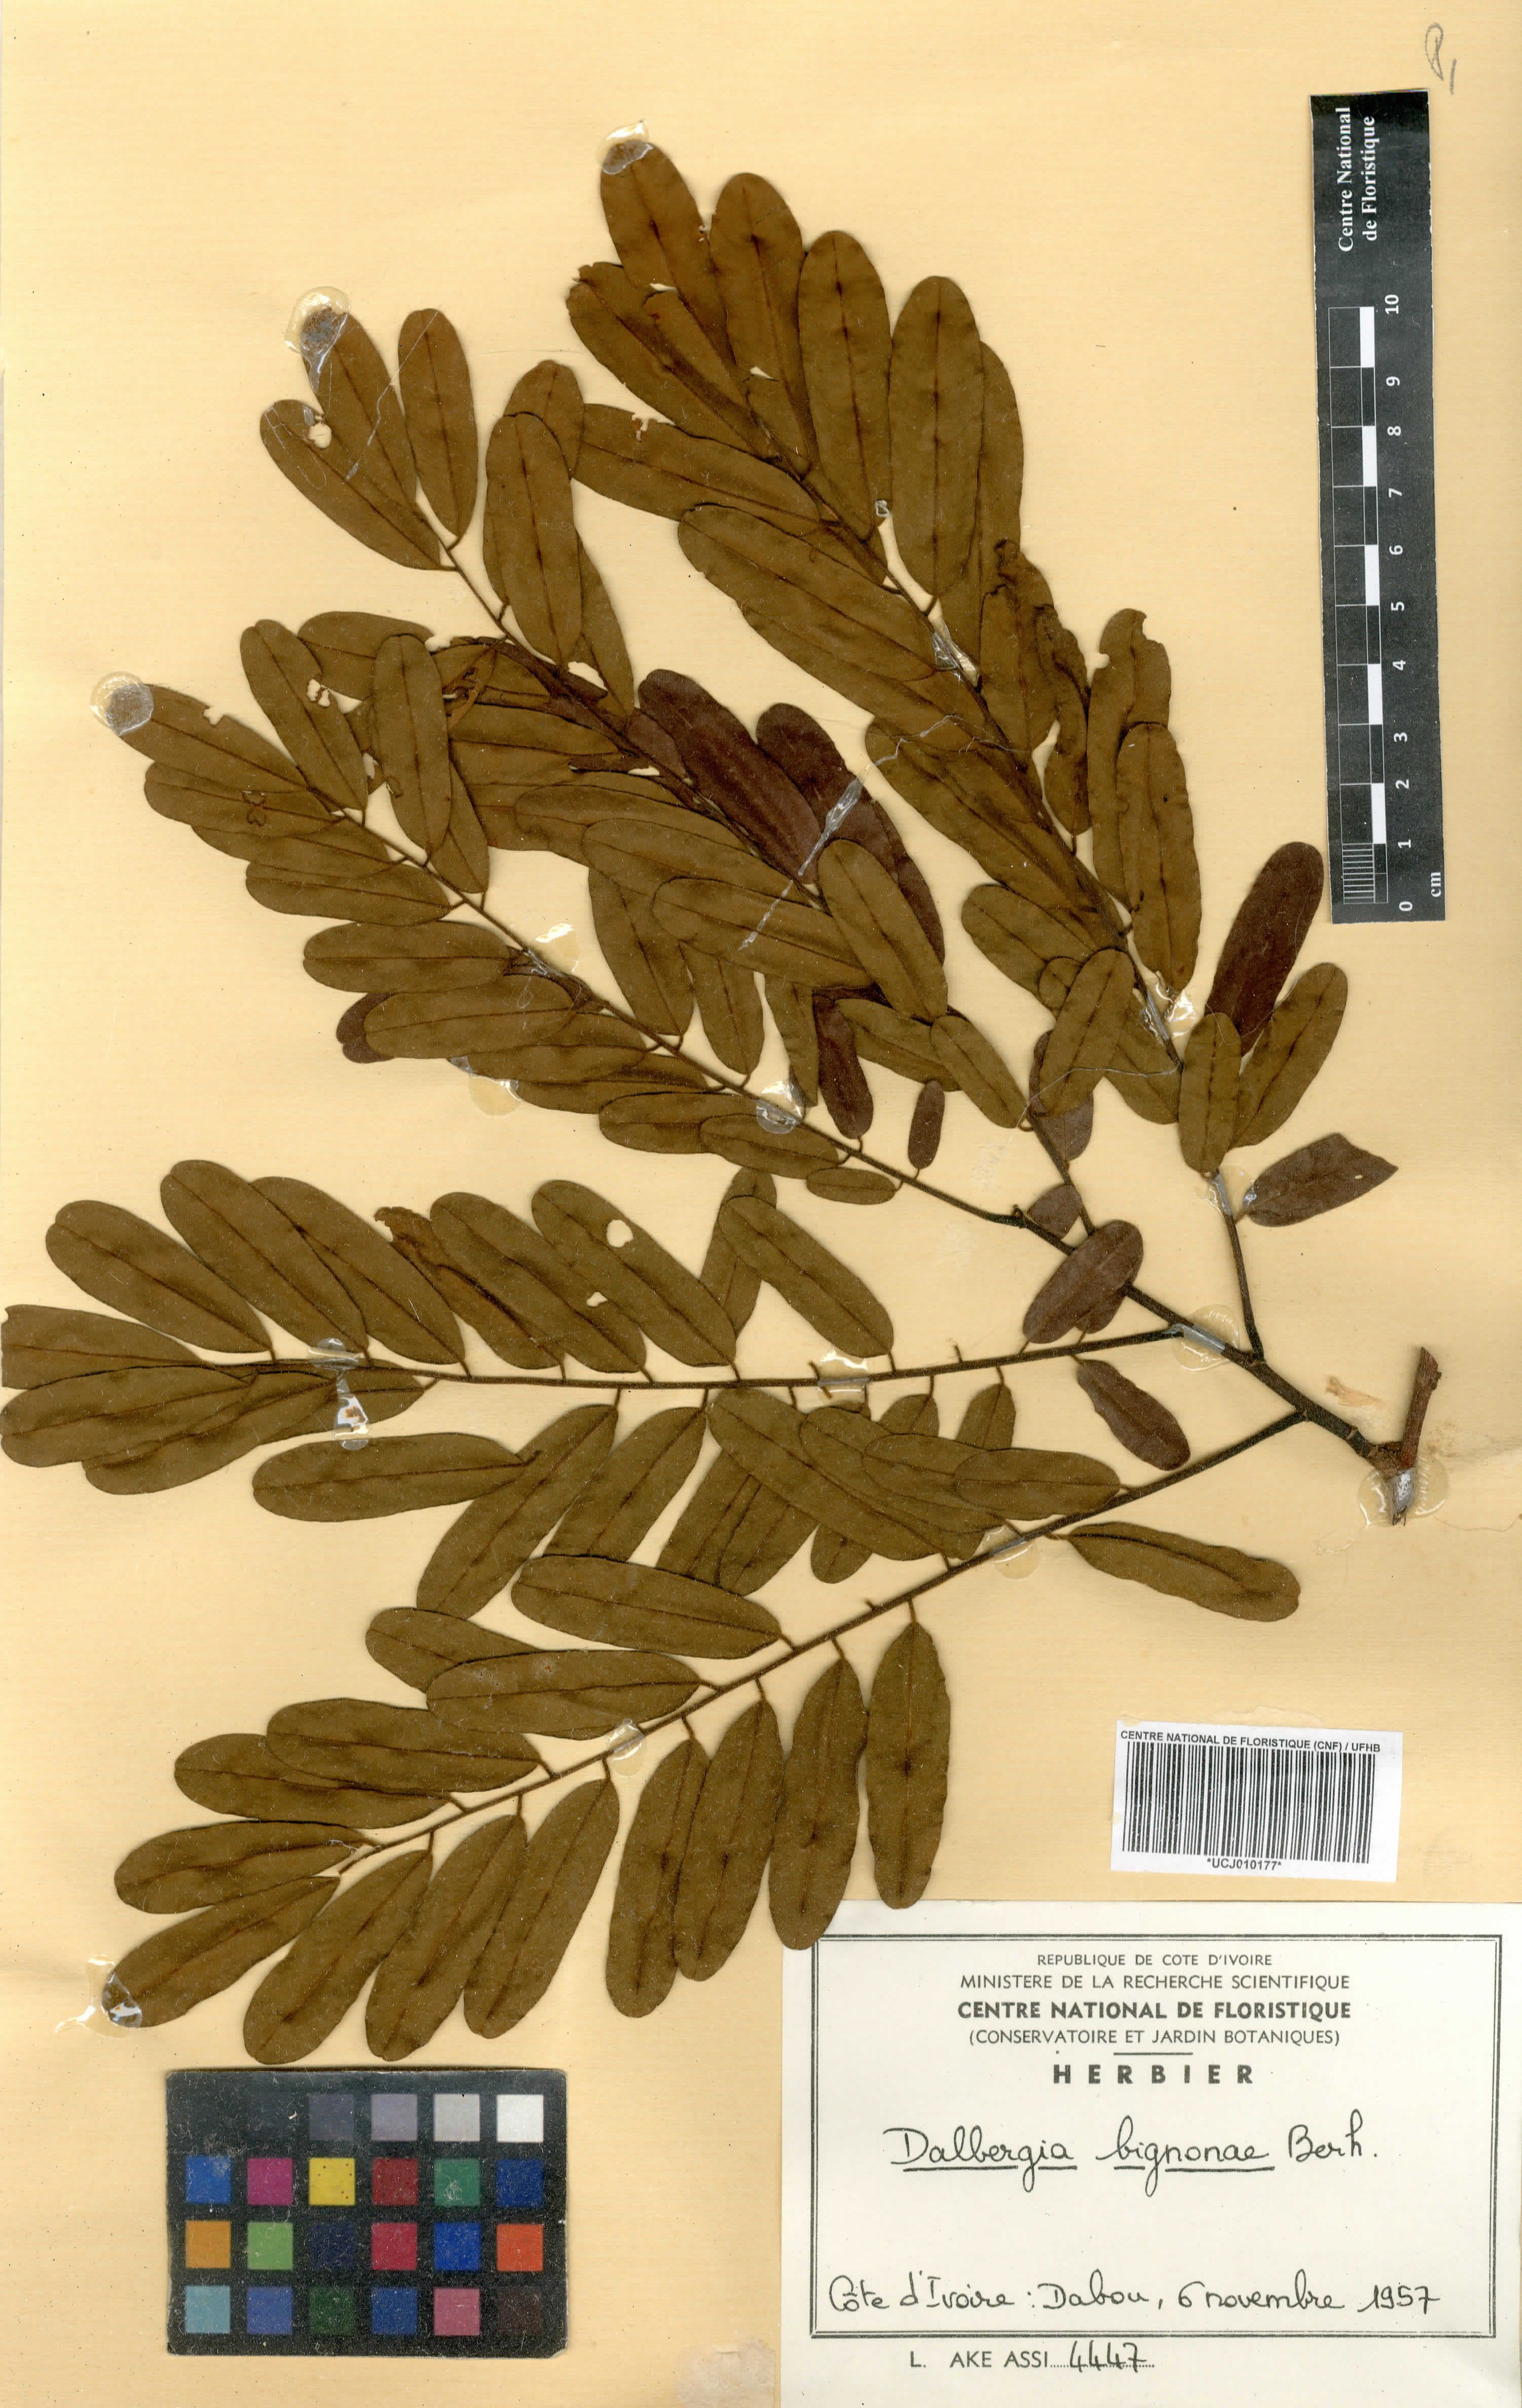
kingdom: Plantae
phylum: Tracheophyta
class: Magnoliopsida
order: Fabales
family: Fabaceae
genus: Dalbergia
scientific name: Dalbergia mayumbensis
